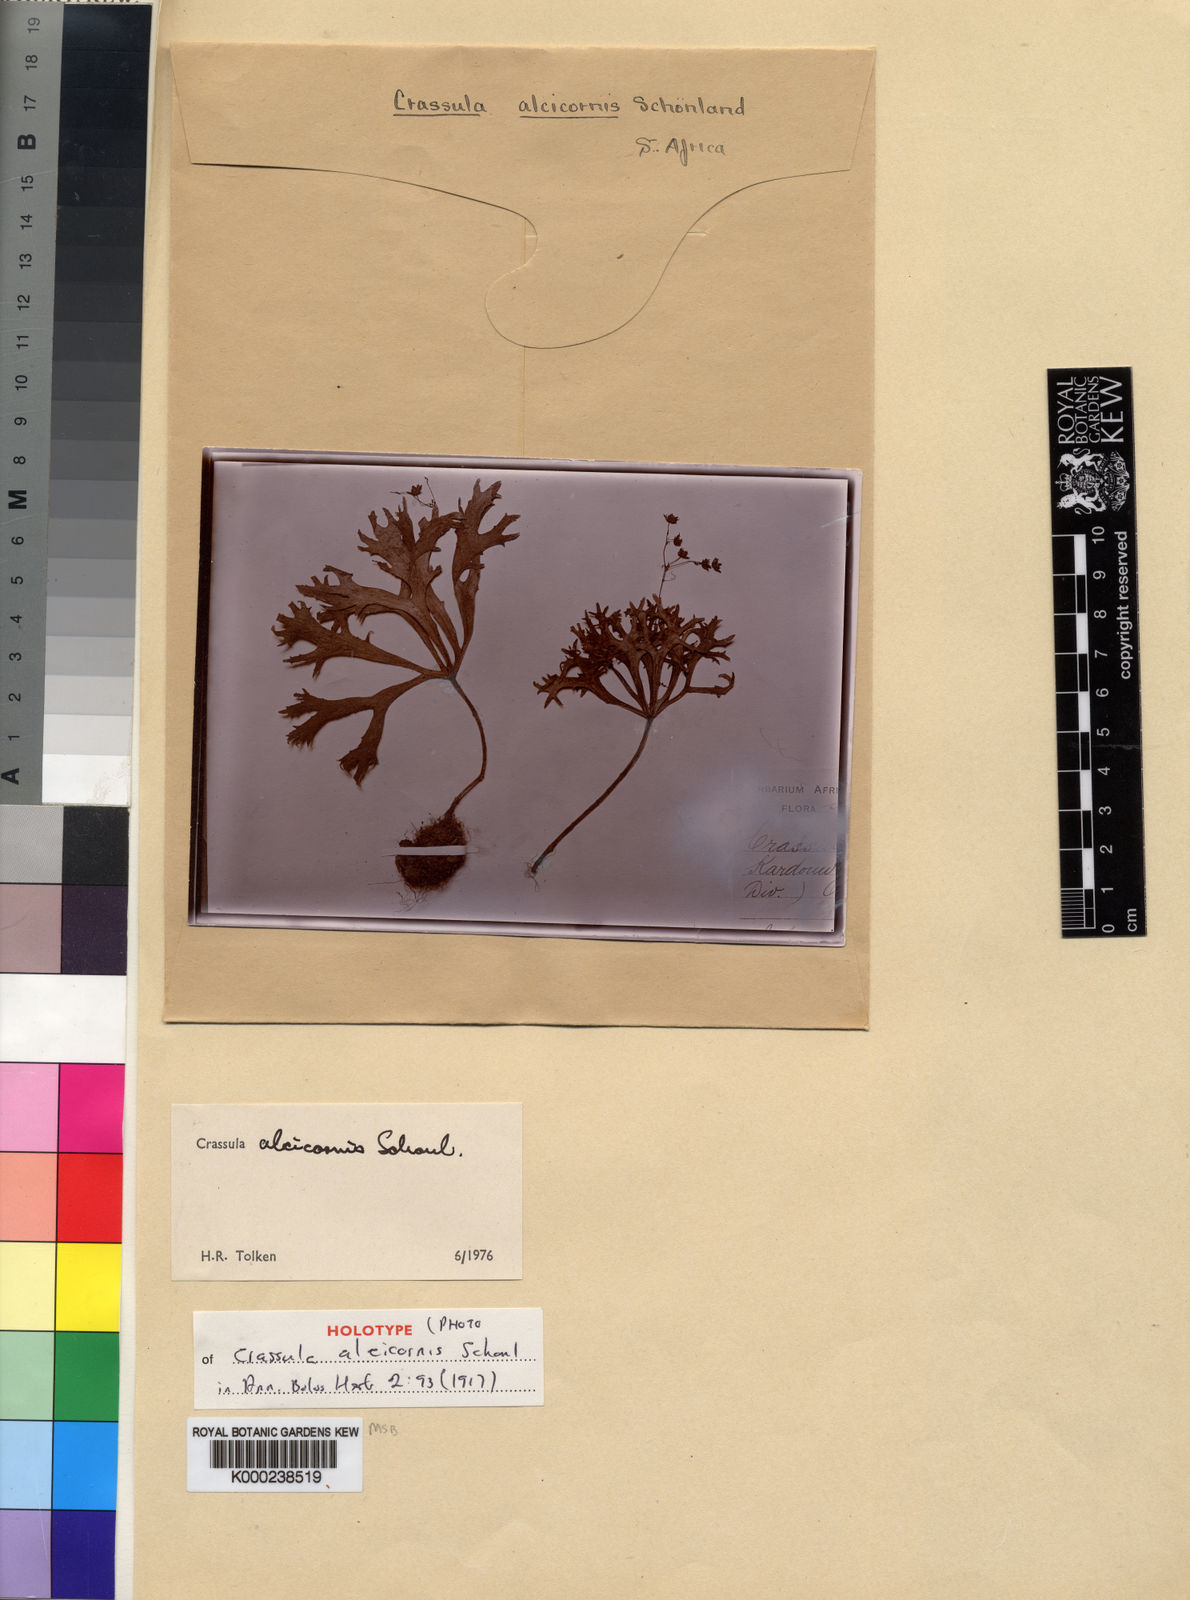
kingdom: Plantae
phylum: Tracheophyta
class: Magnoliopsida
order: Saxifragales
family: Crassulaceae
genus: Crassula
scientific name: Crassula
